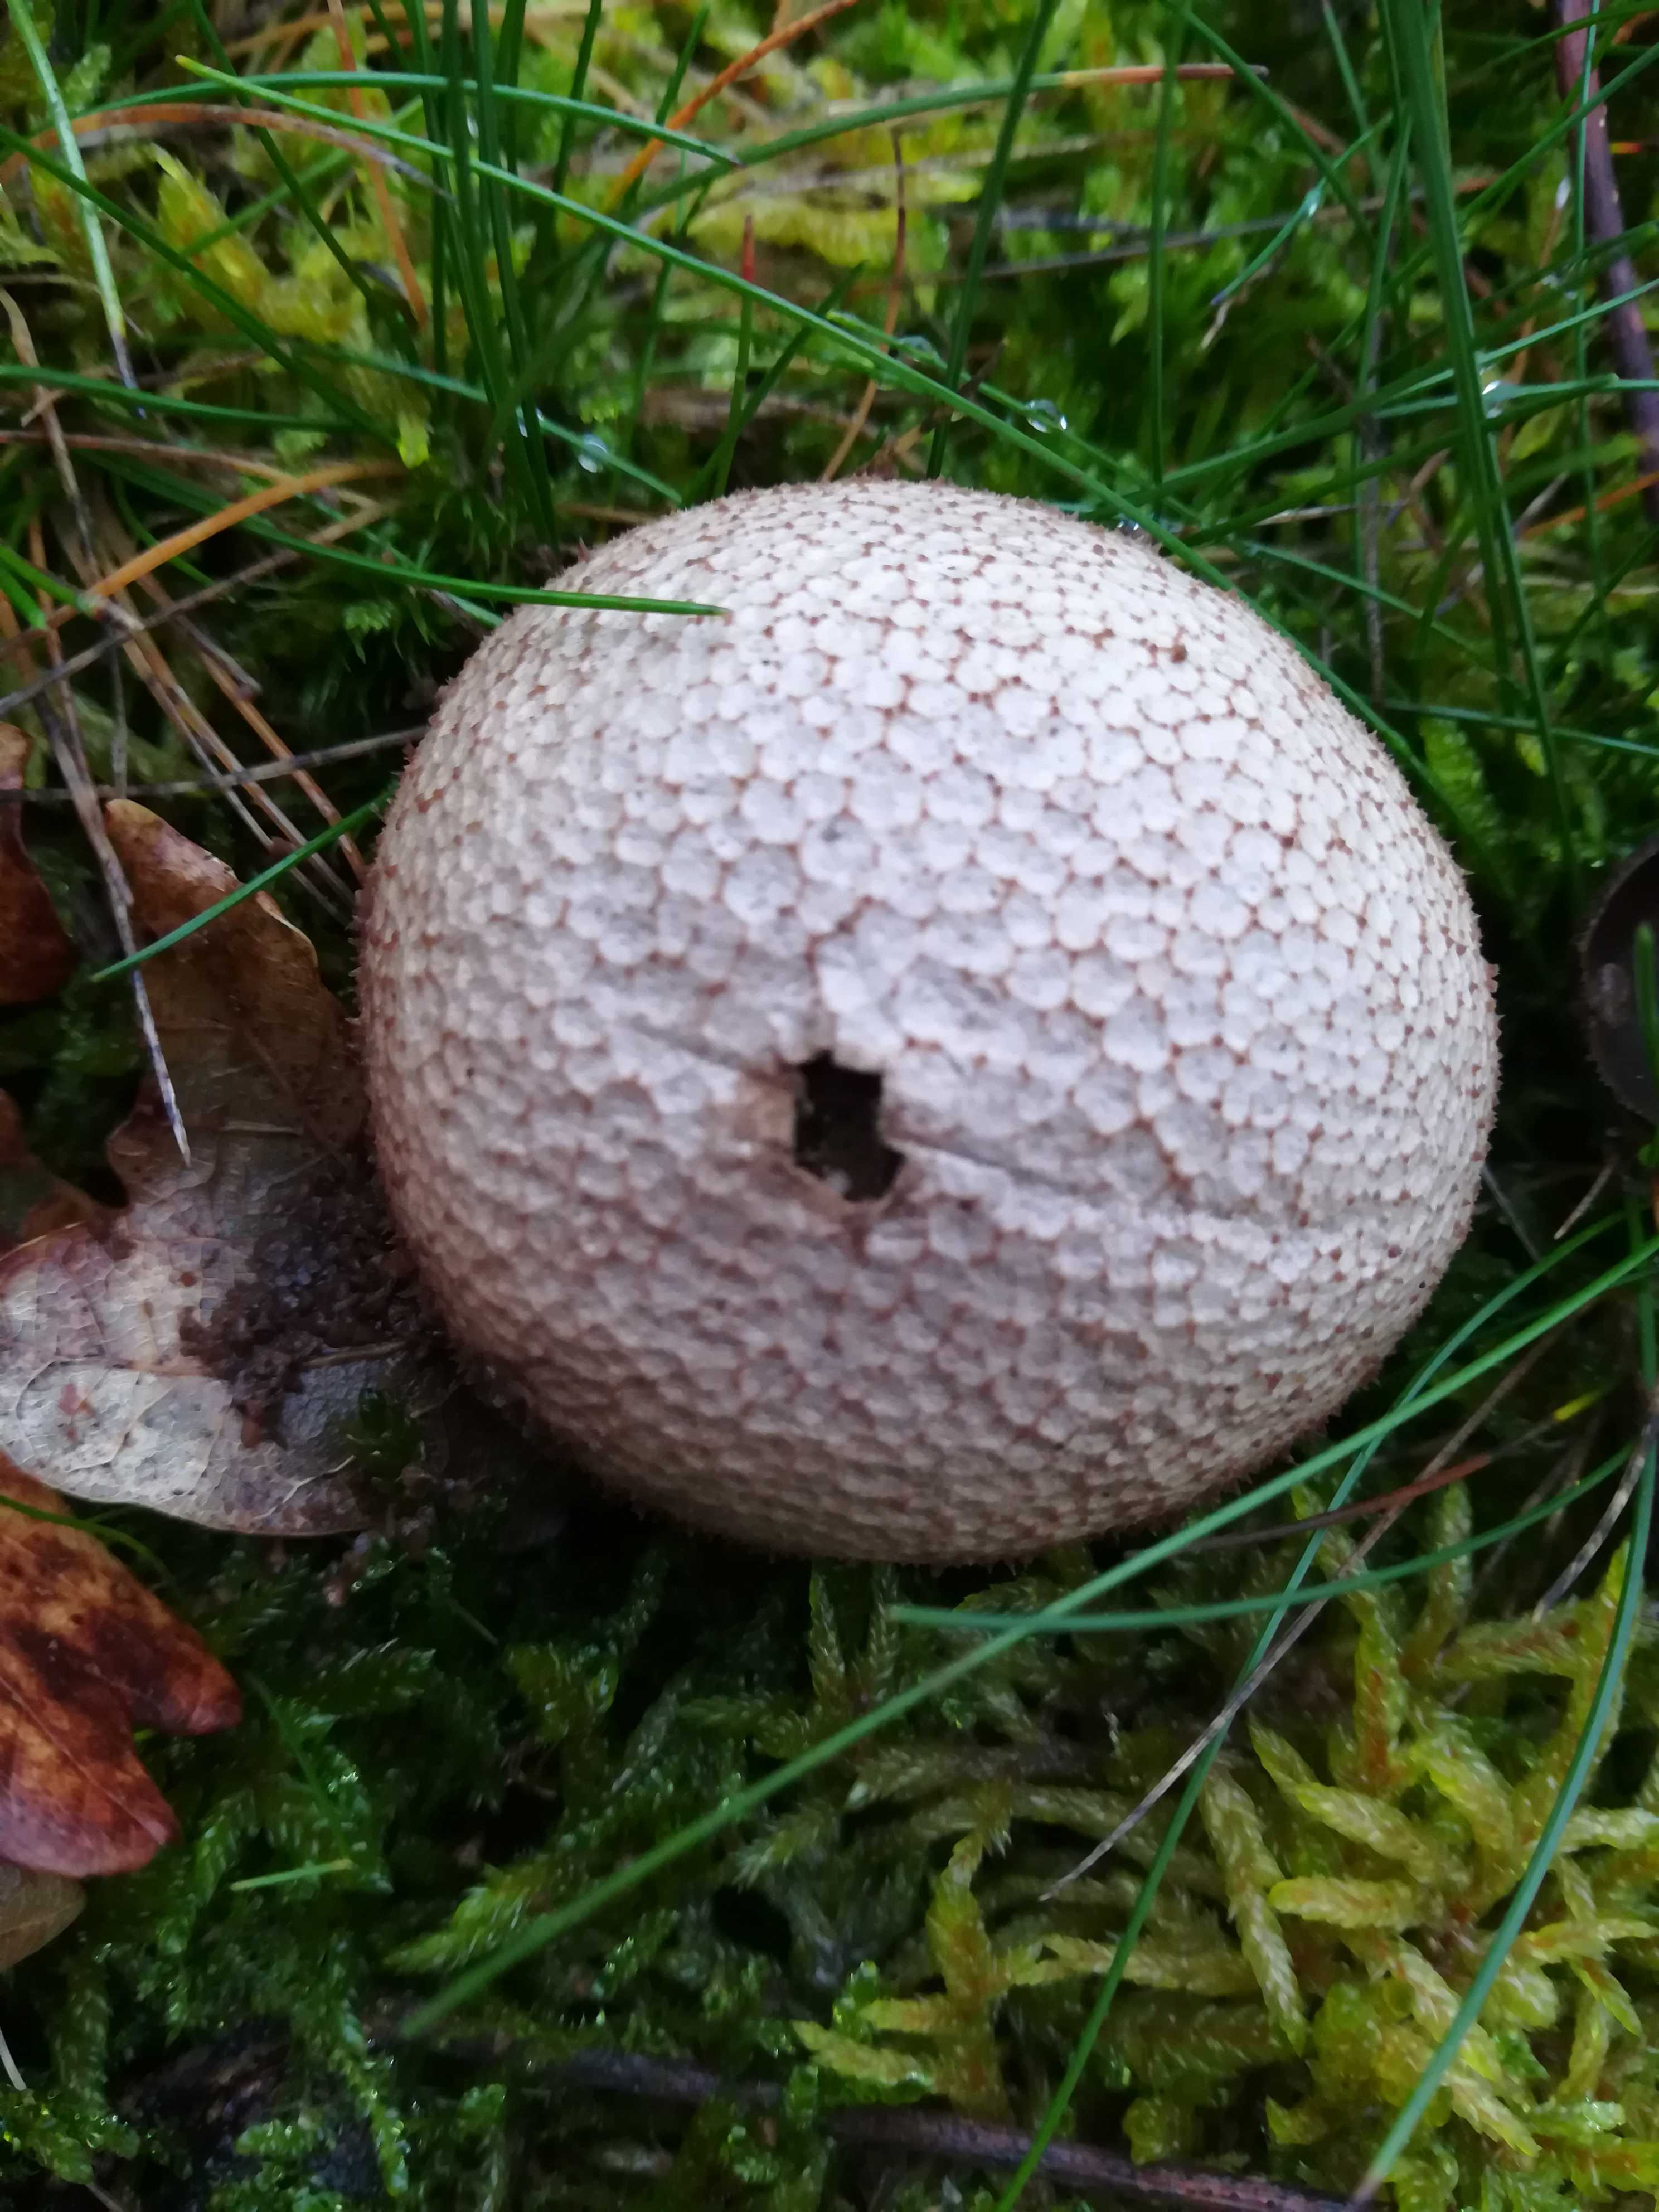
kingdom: Fungi
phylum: Basidiomycota
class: Agaricomycetes
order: Agaricales
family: Lycoperdaceae
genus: Lycoperdon
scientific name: Lycoperdon nigrescens
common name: sortagtig støvbold
